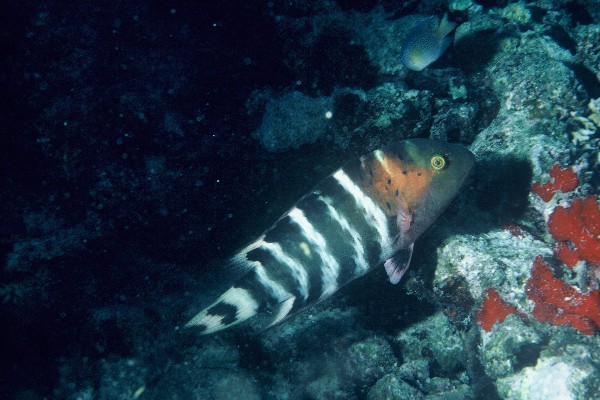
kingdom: Animalia
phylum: Chordata
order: Perciformes
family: Labridae
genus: Cheilinus
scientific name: Cheilinus fasciatus
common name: Red-breasted wrasse
